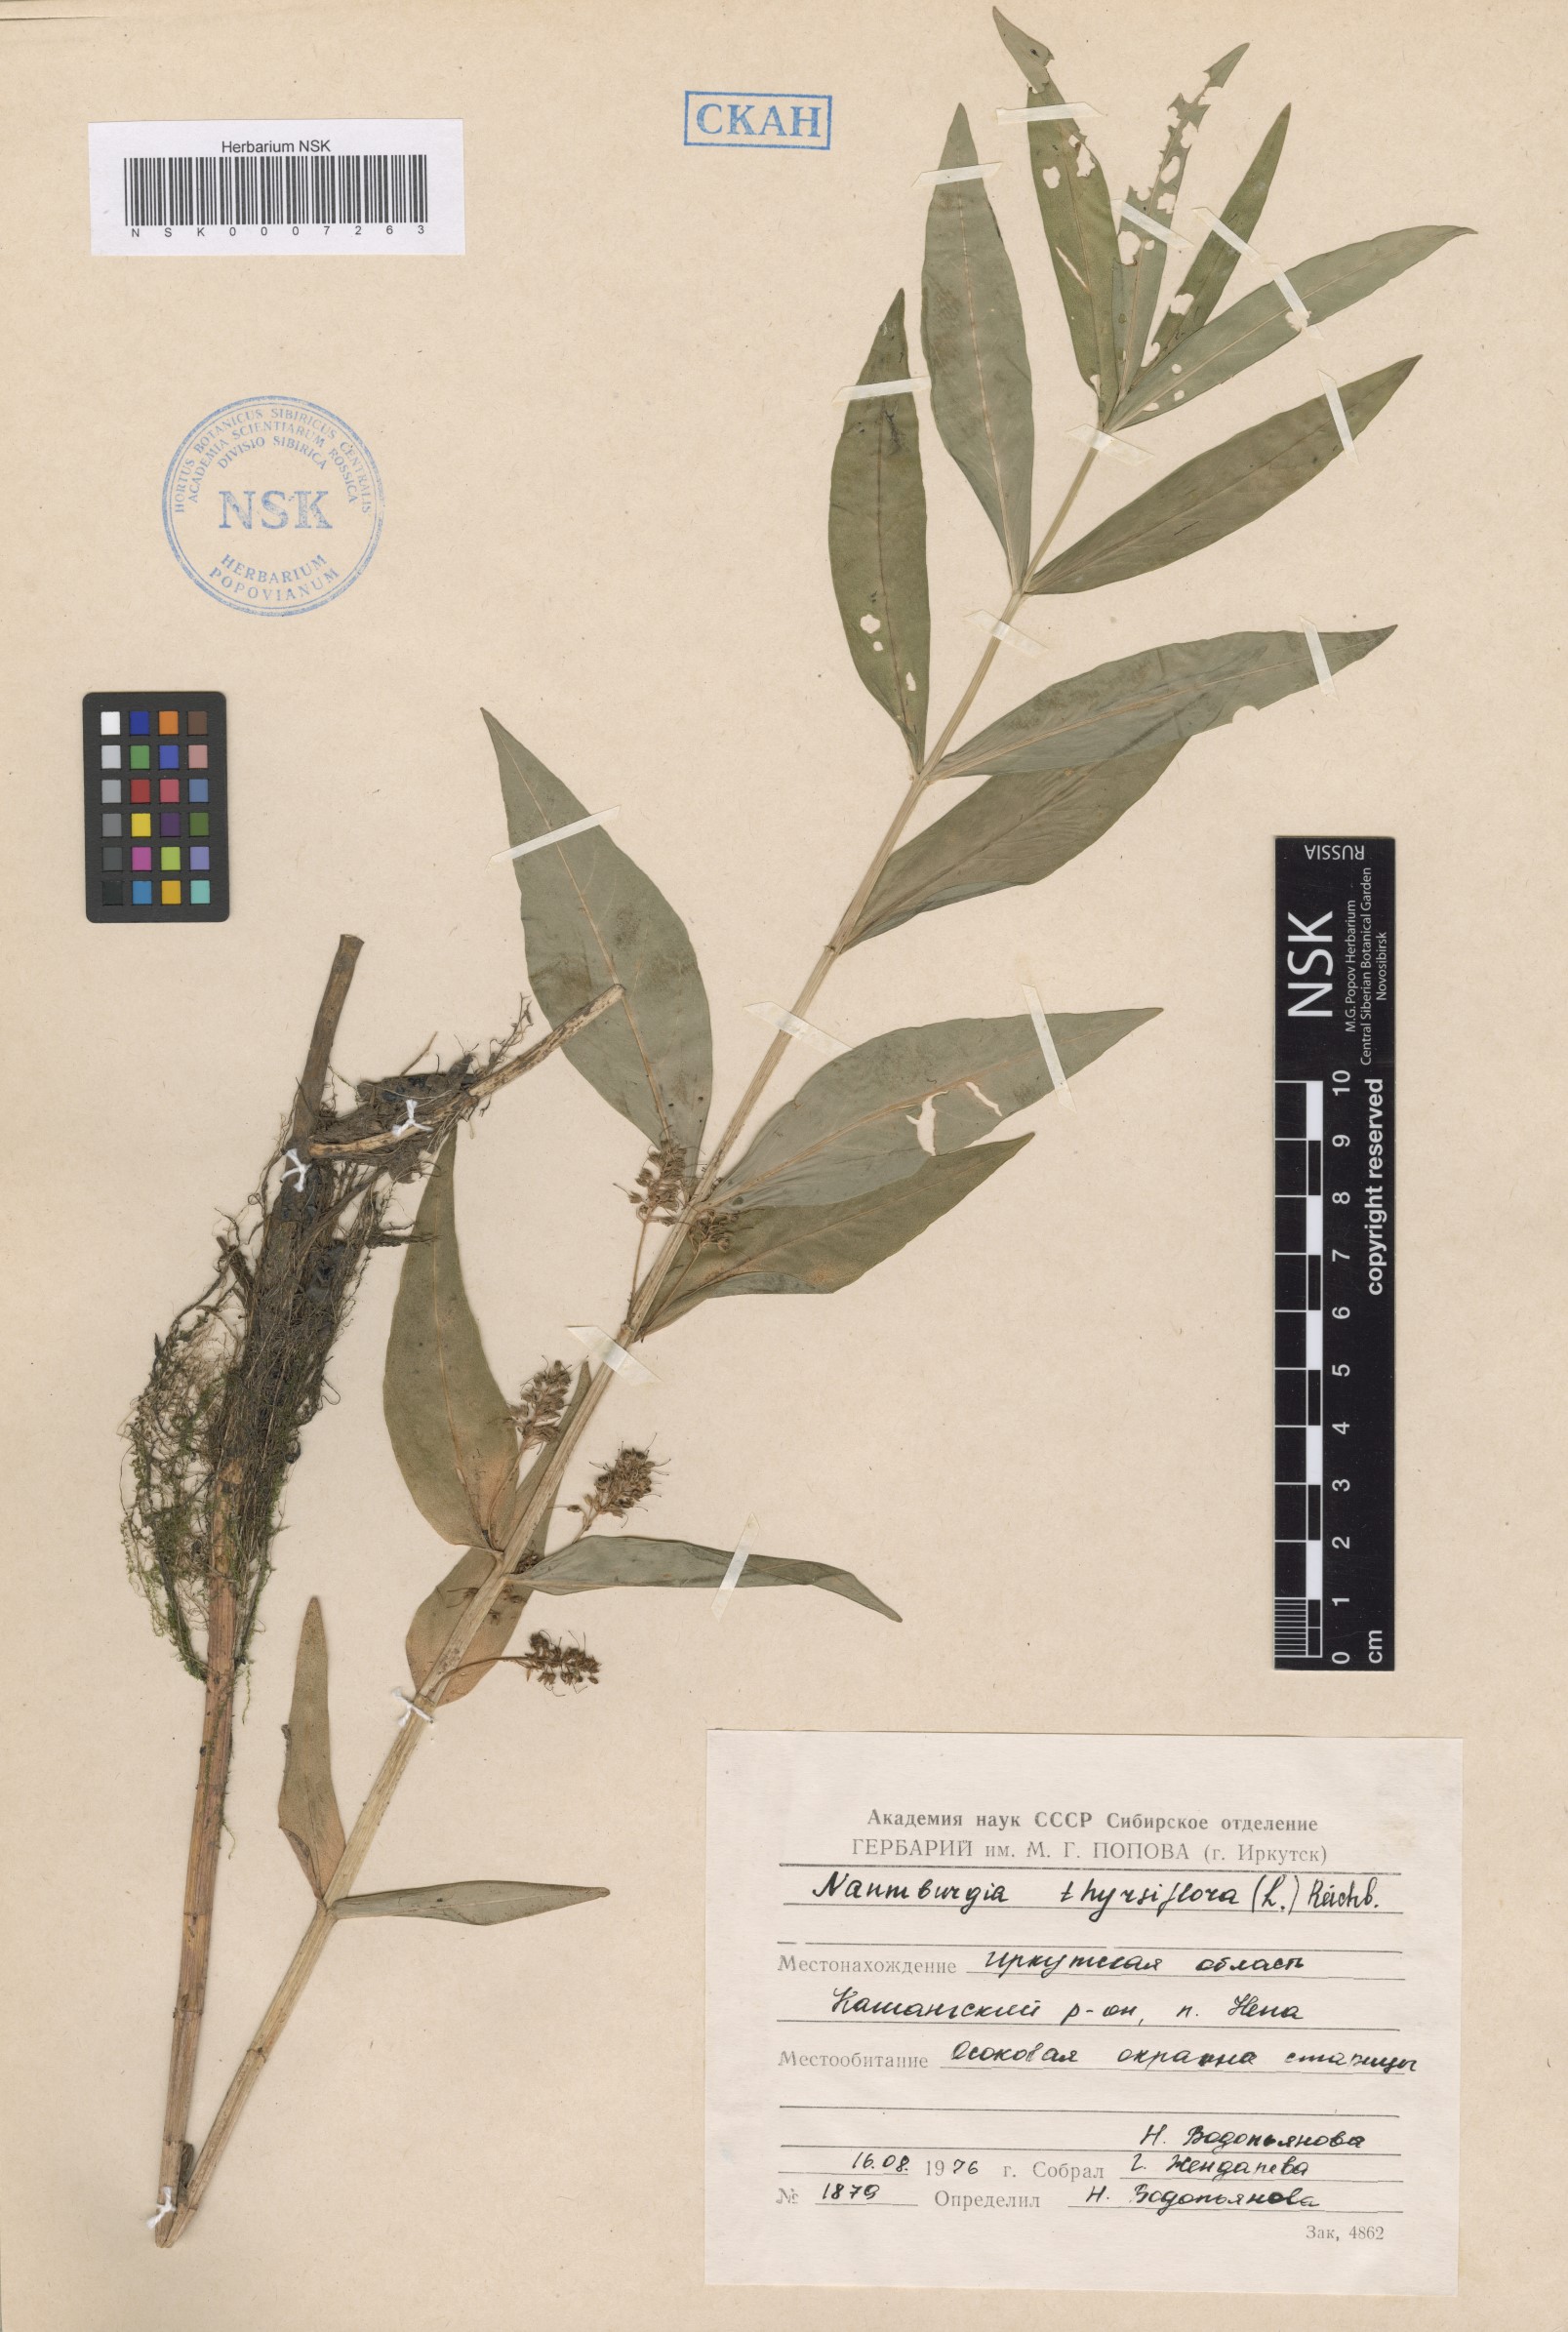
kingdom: Plantae
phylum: Tracheophyta
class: Magnoliopsida
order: Ericales
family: Primulaceae
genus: Lysimachia
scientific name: Lysimachia thyrsiflora
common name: Tufted loosestrife
